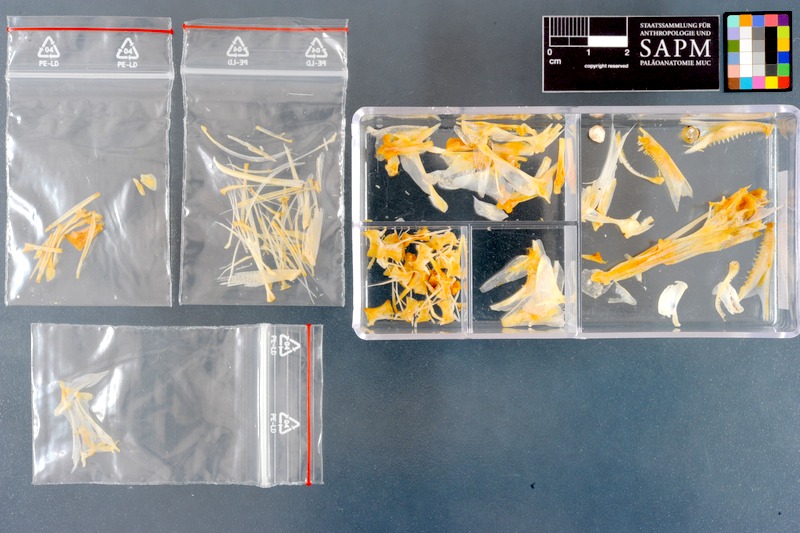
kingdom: Animalia
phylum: Chordata
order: Perciformes
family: Sphyraenidae
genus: Sphyraena
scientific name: Sphyraena jello
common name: Pickhandle barracuda
